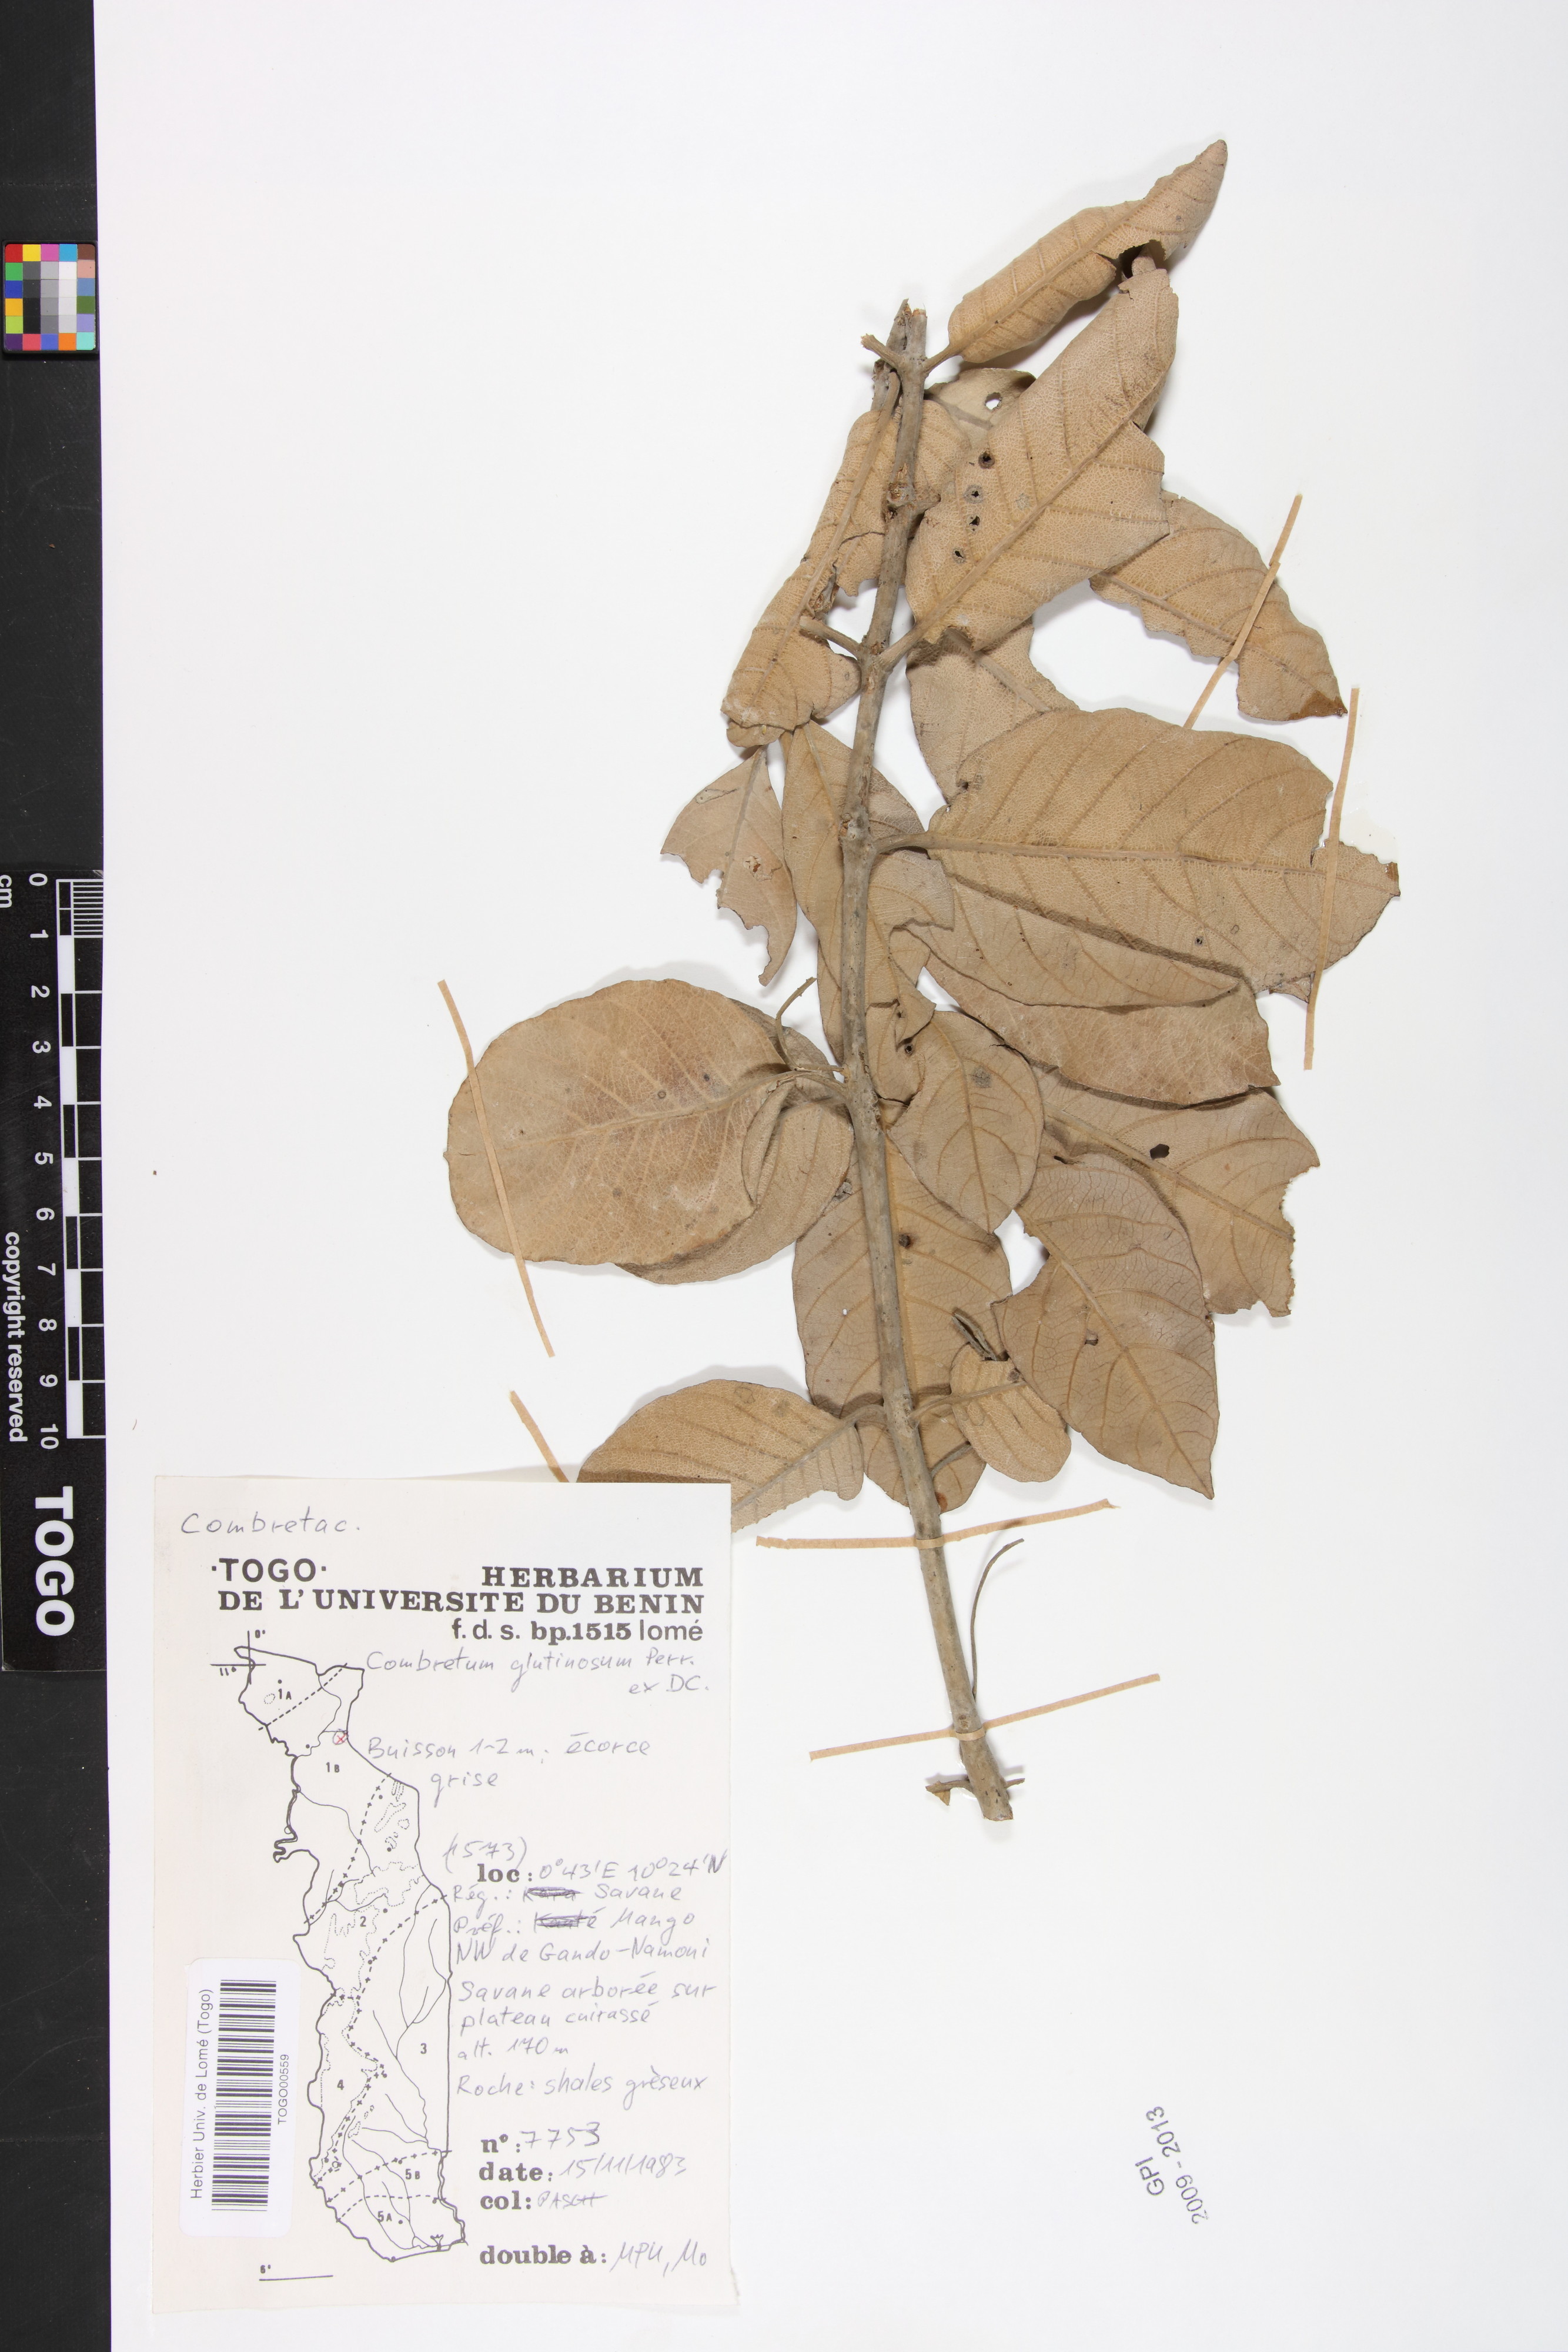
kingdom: Plantae
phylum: Tracheophyta
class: Magnoliopsida
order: Myrtales
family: Combretaceae
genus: Combretum
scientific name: Combretum glutinosum
